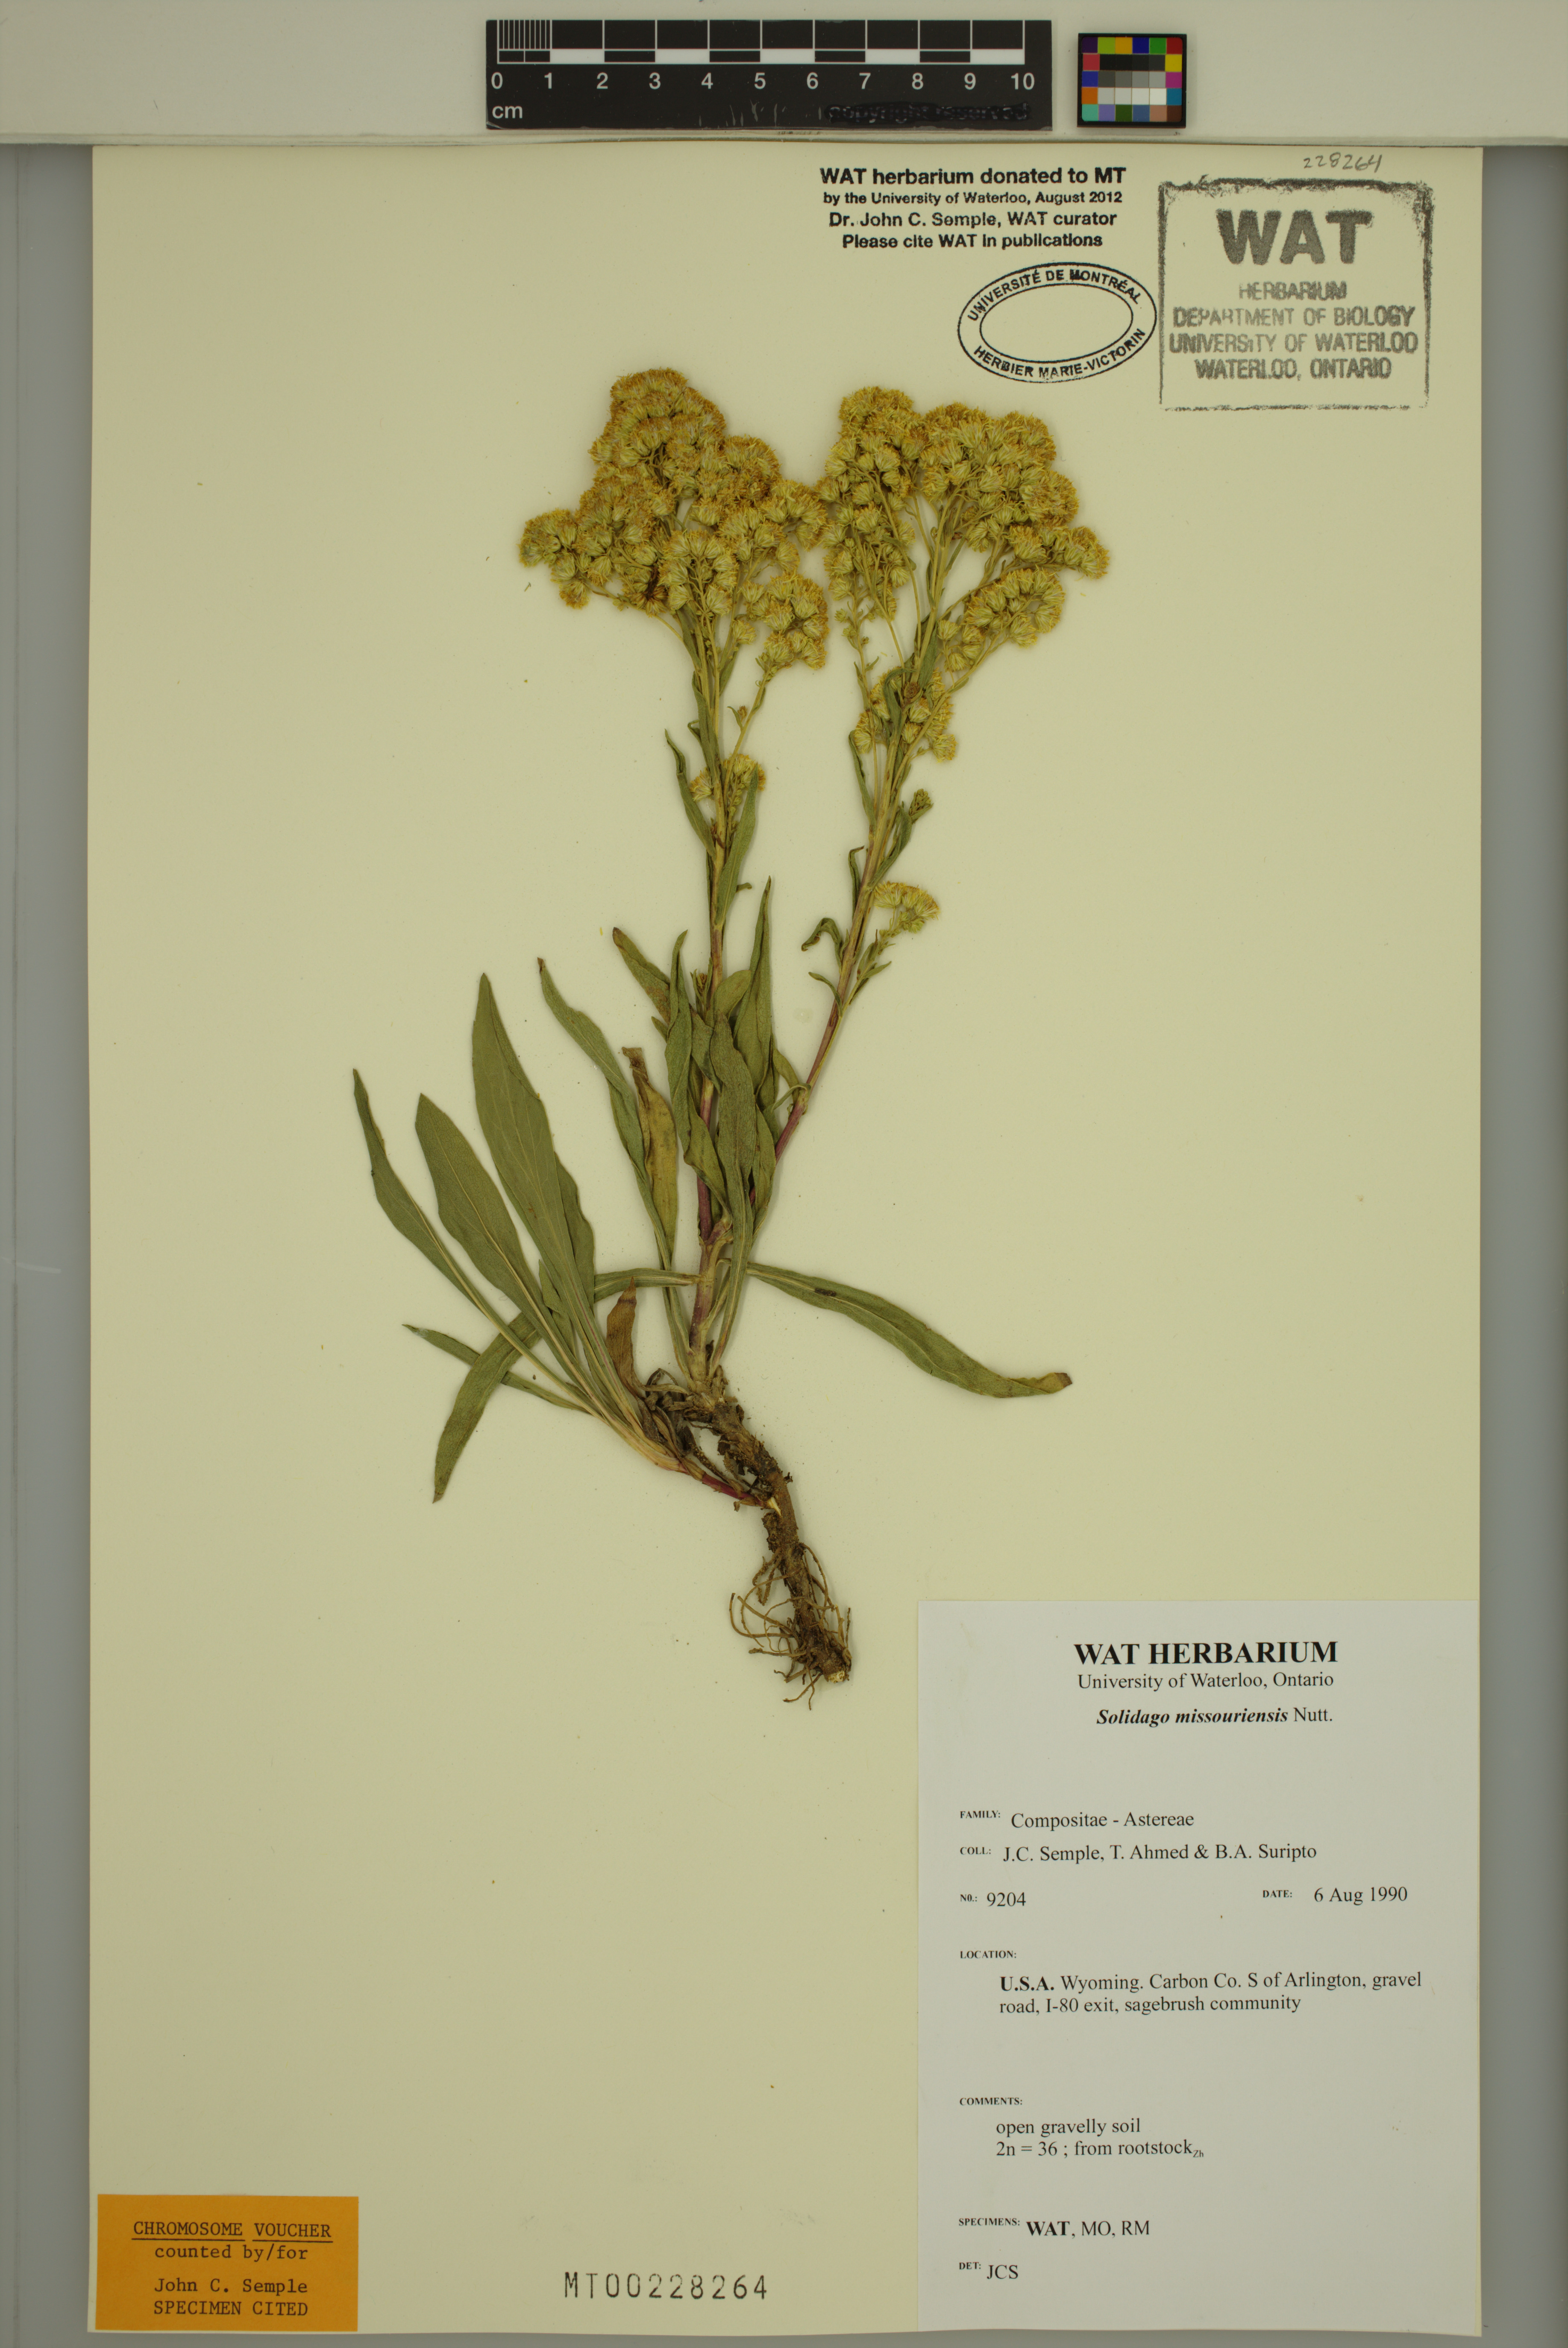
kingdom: Plantae
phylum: Tracheophyta
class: Magnoliopsida
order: Asterales
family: Asteraceae
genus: Solidago
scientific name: Solidago missouriensis
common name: Prairie goldenrod
